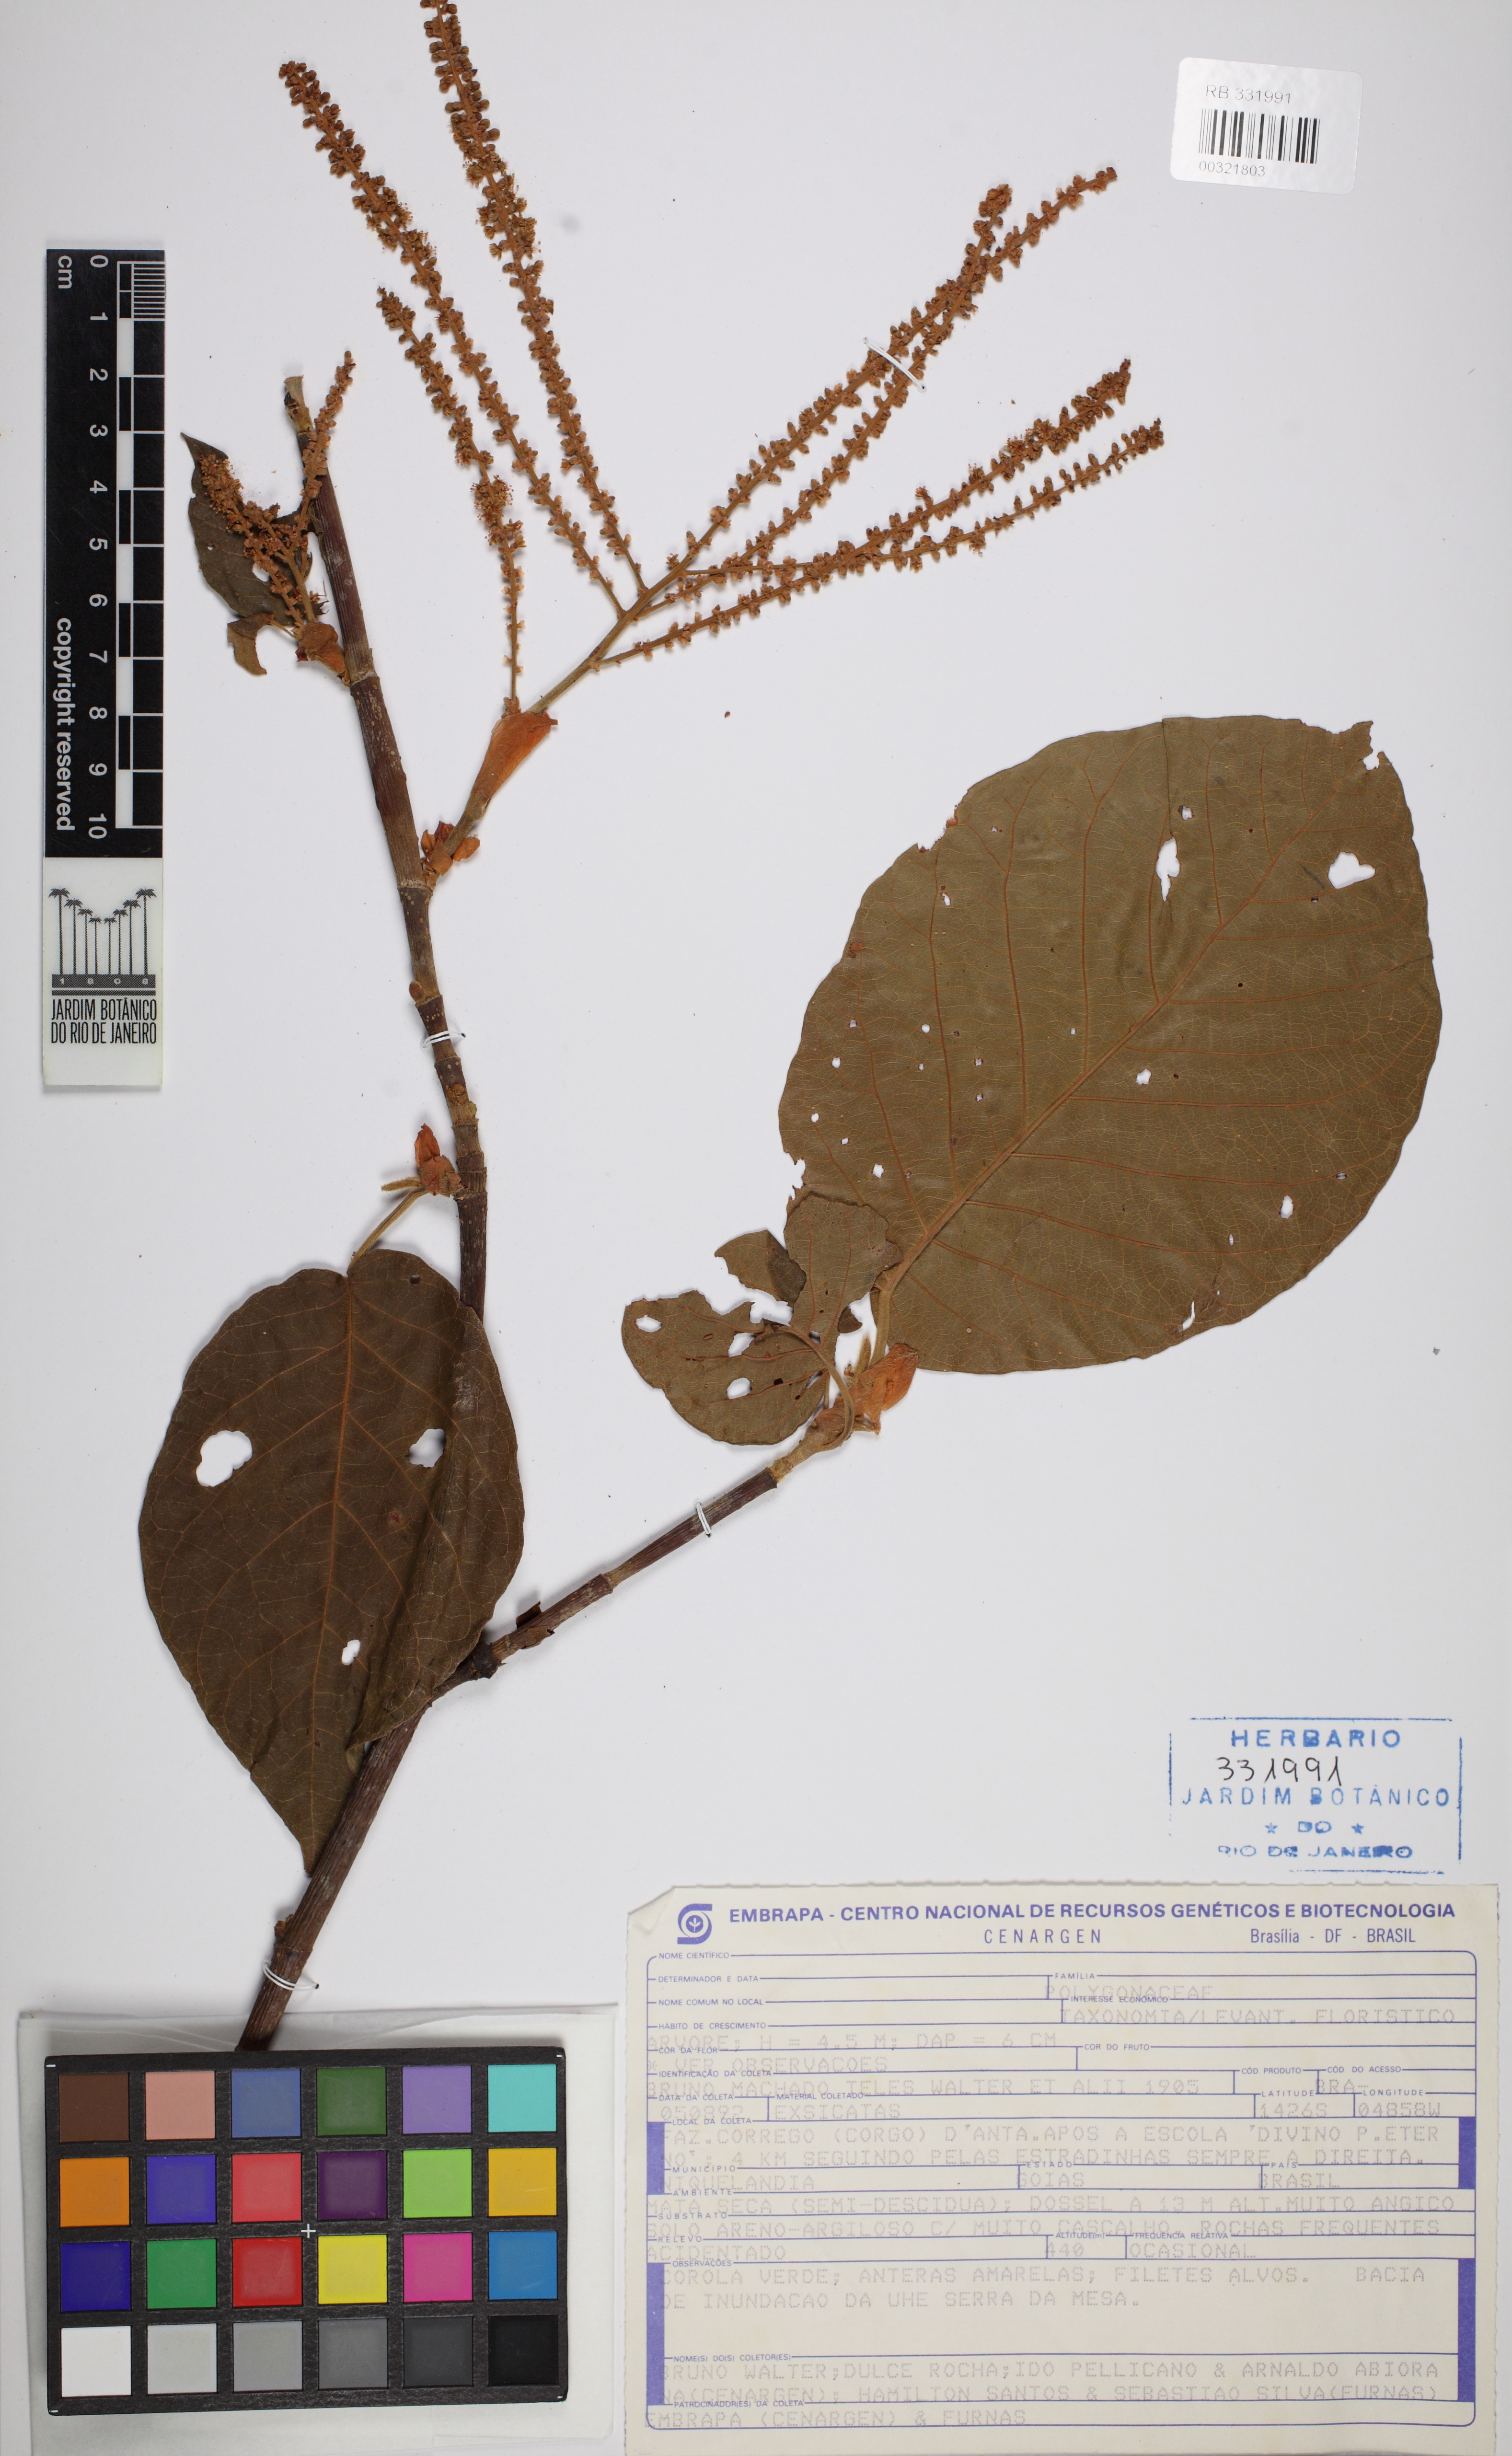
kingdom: Plantae
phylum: Tracheophyta
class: Magnoliopsida
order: Caryophyllales
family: Polygonaceae
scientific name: Polygonaceae
